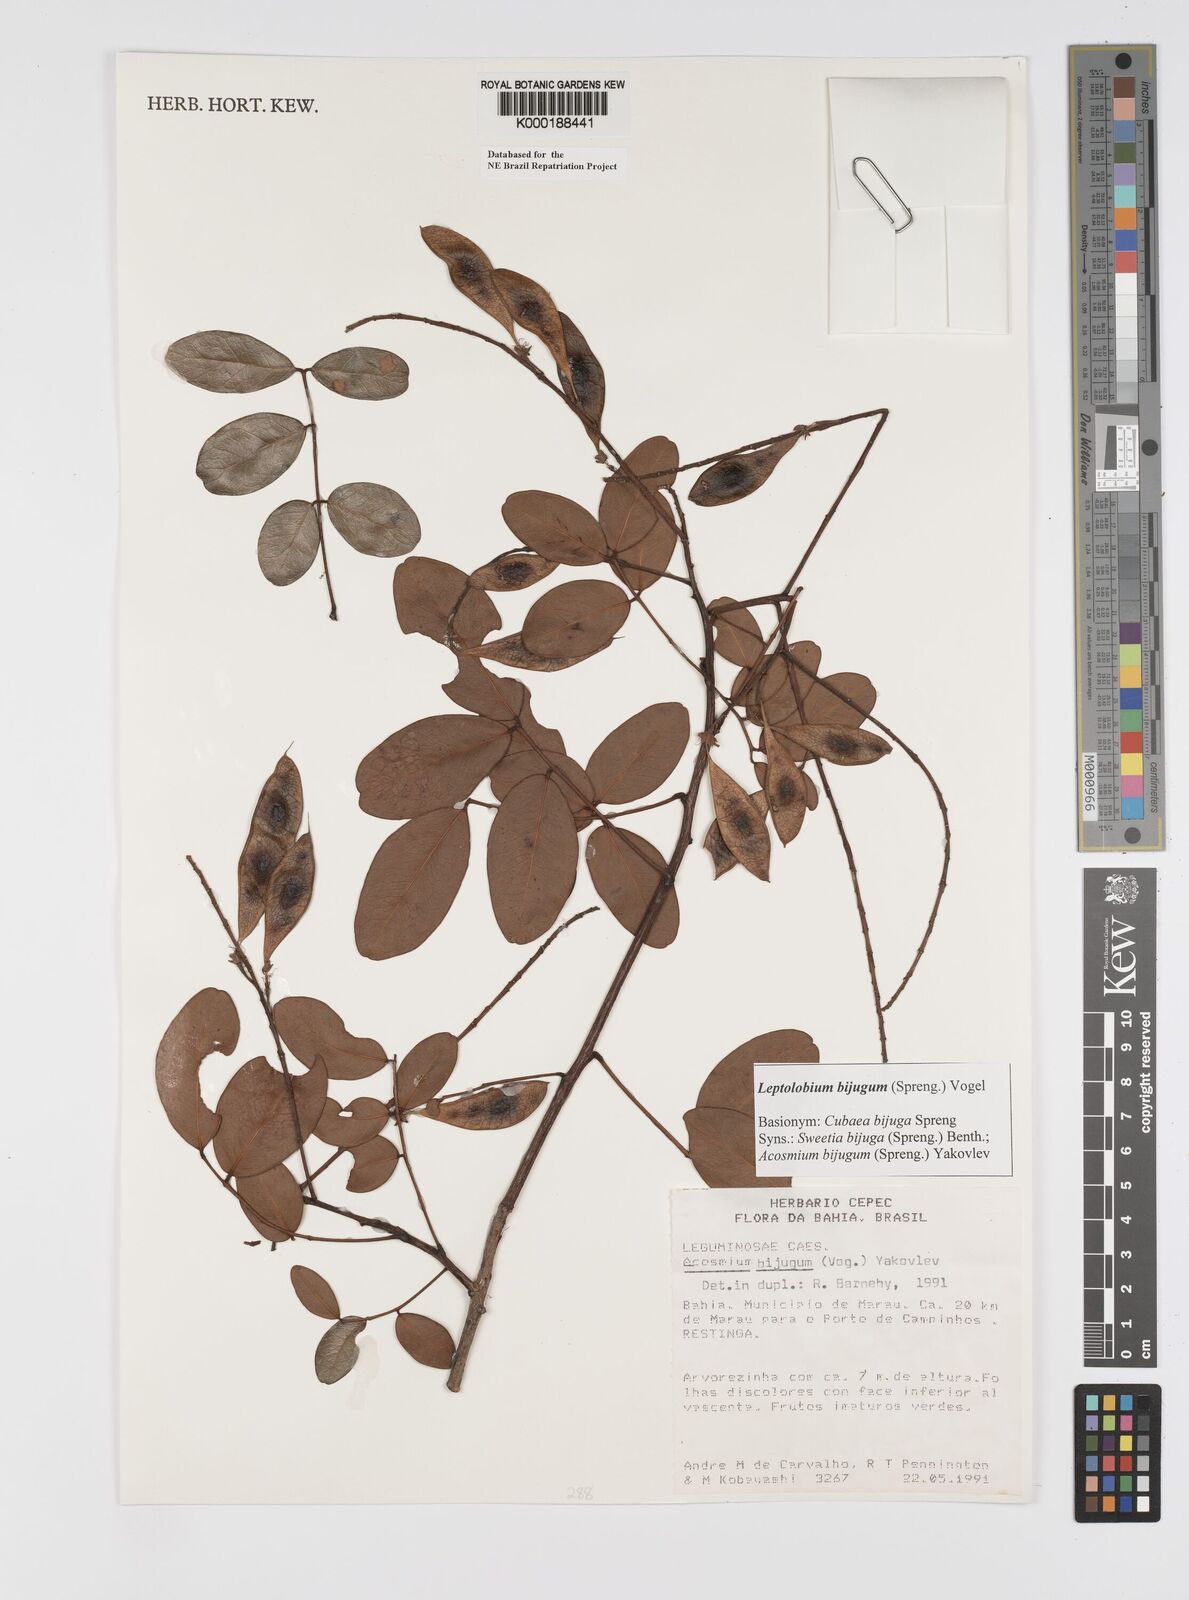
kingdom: Plantae
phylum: Tracheophyta
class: Magnoliopsida
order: Fabales
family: Fabaceae
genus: Leptolobium
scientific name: Leptolobium bijugum
